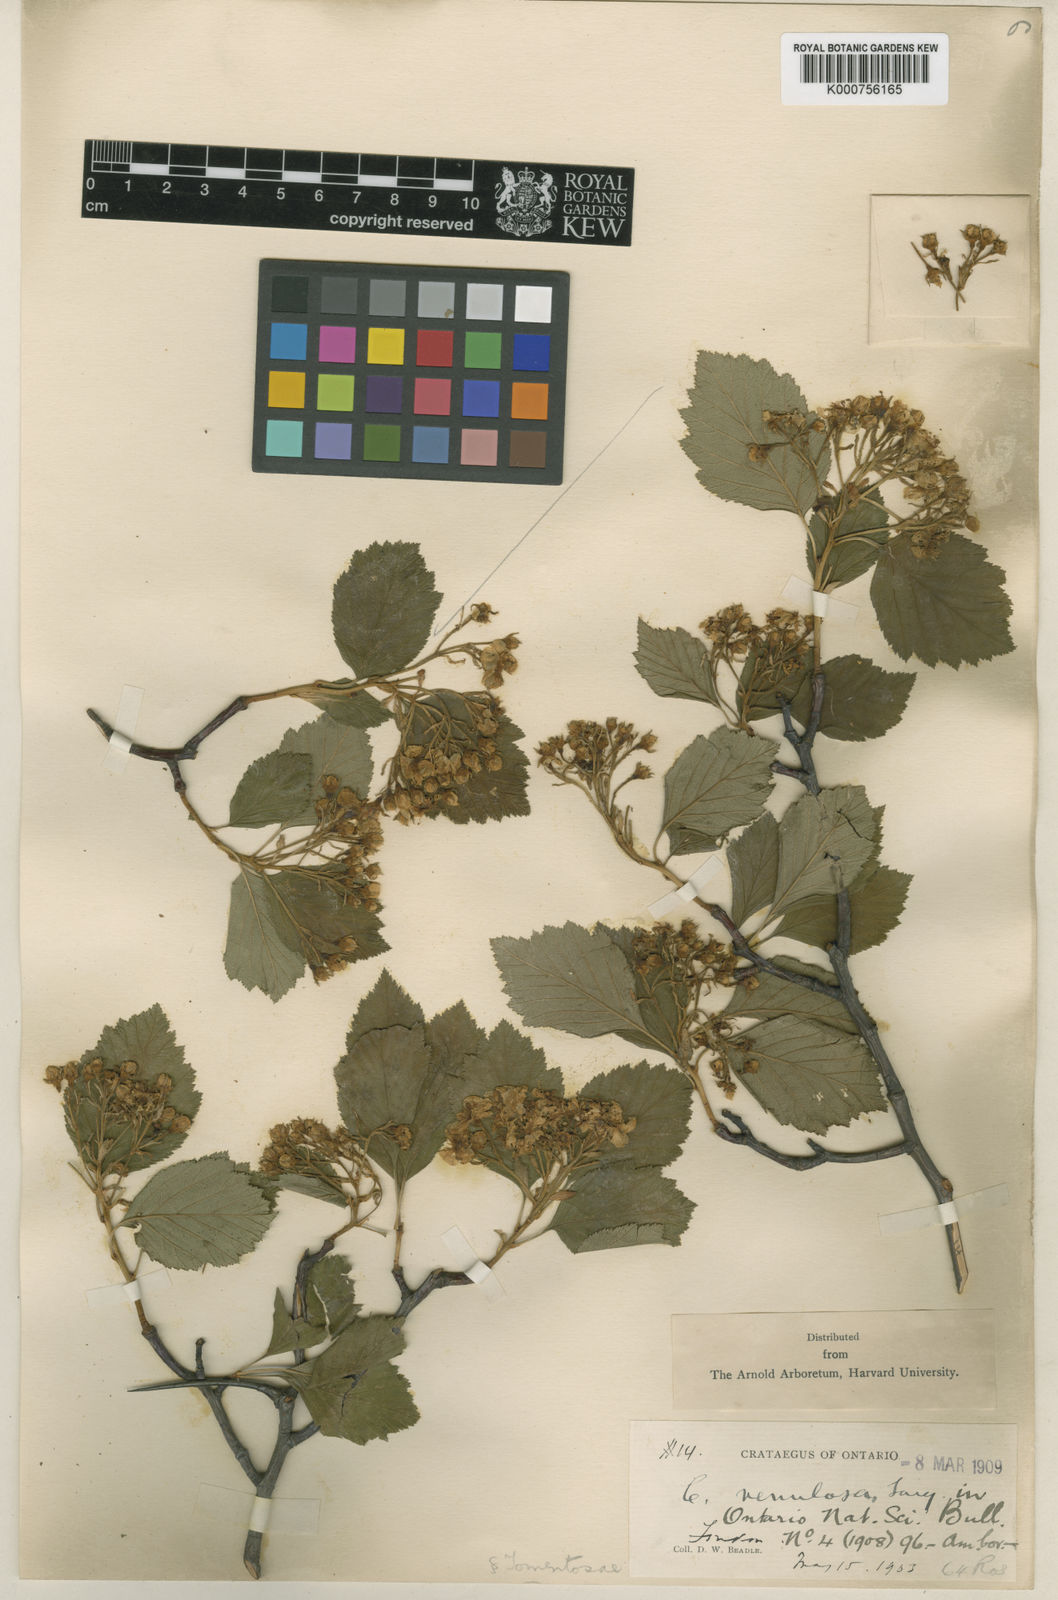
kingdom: Plantae
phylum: Tracheophyta
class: Magnoliopsida
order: Rosales
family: Rosaceae
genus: Crataegus
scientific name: Crataegus succulenta
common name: Fleshy hawthorn
